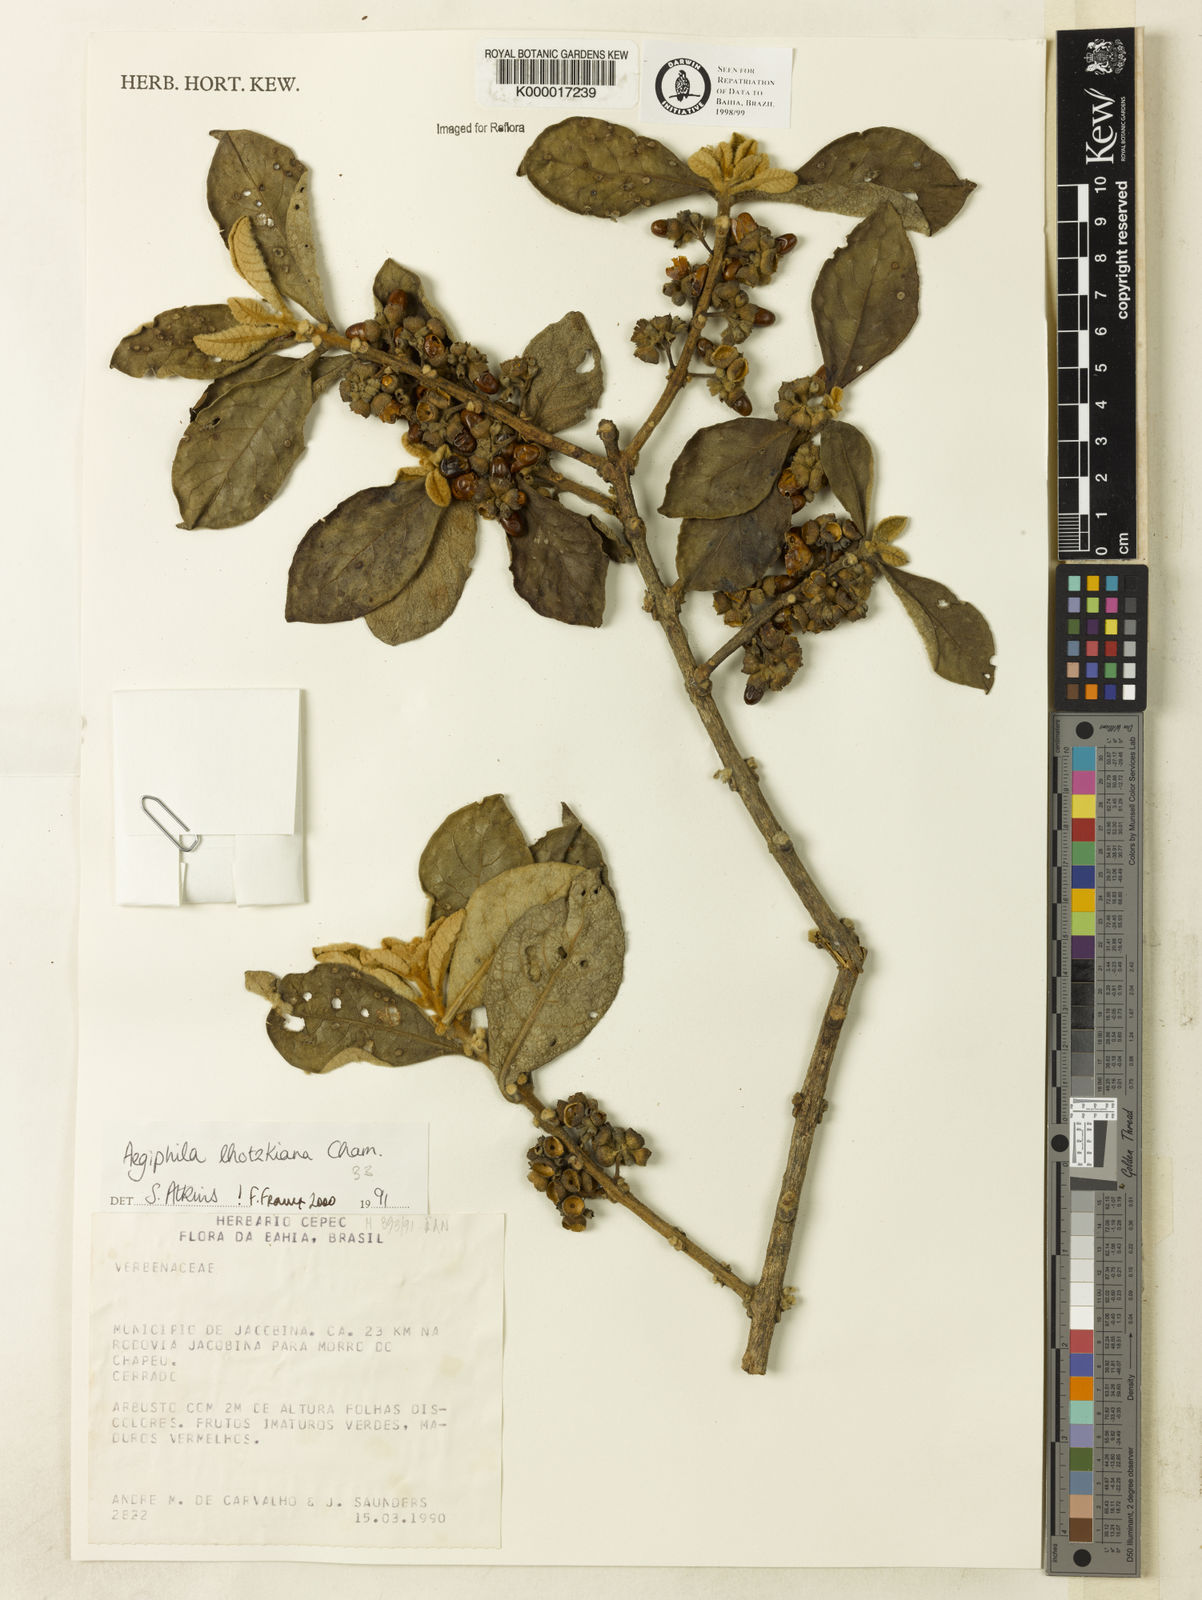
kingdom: Plantae
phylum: Tracheophyta
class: Magnoliopsida
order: Lamiales
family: Lamiaceae
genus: Aegiphila
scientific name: Aegiphila verticillata
